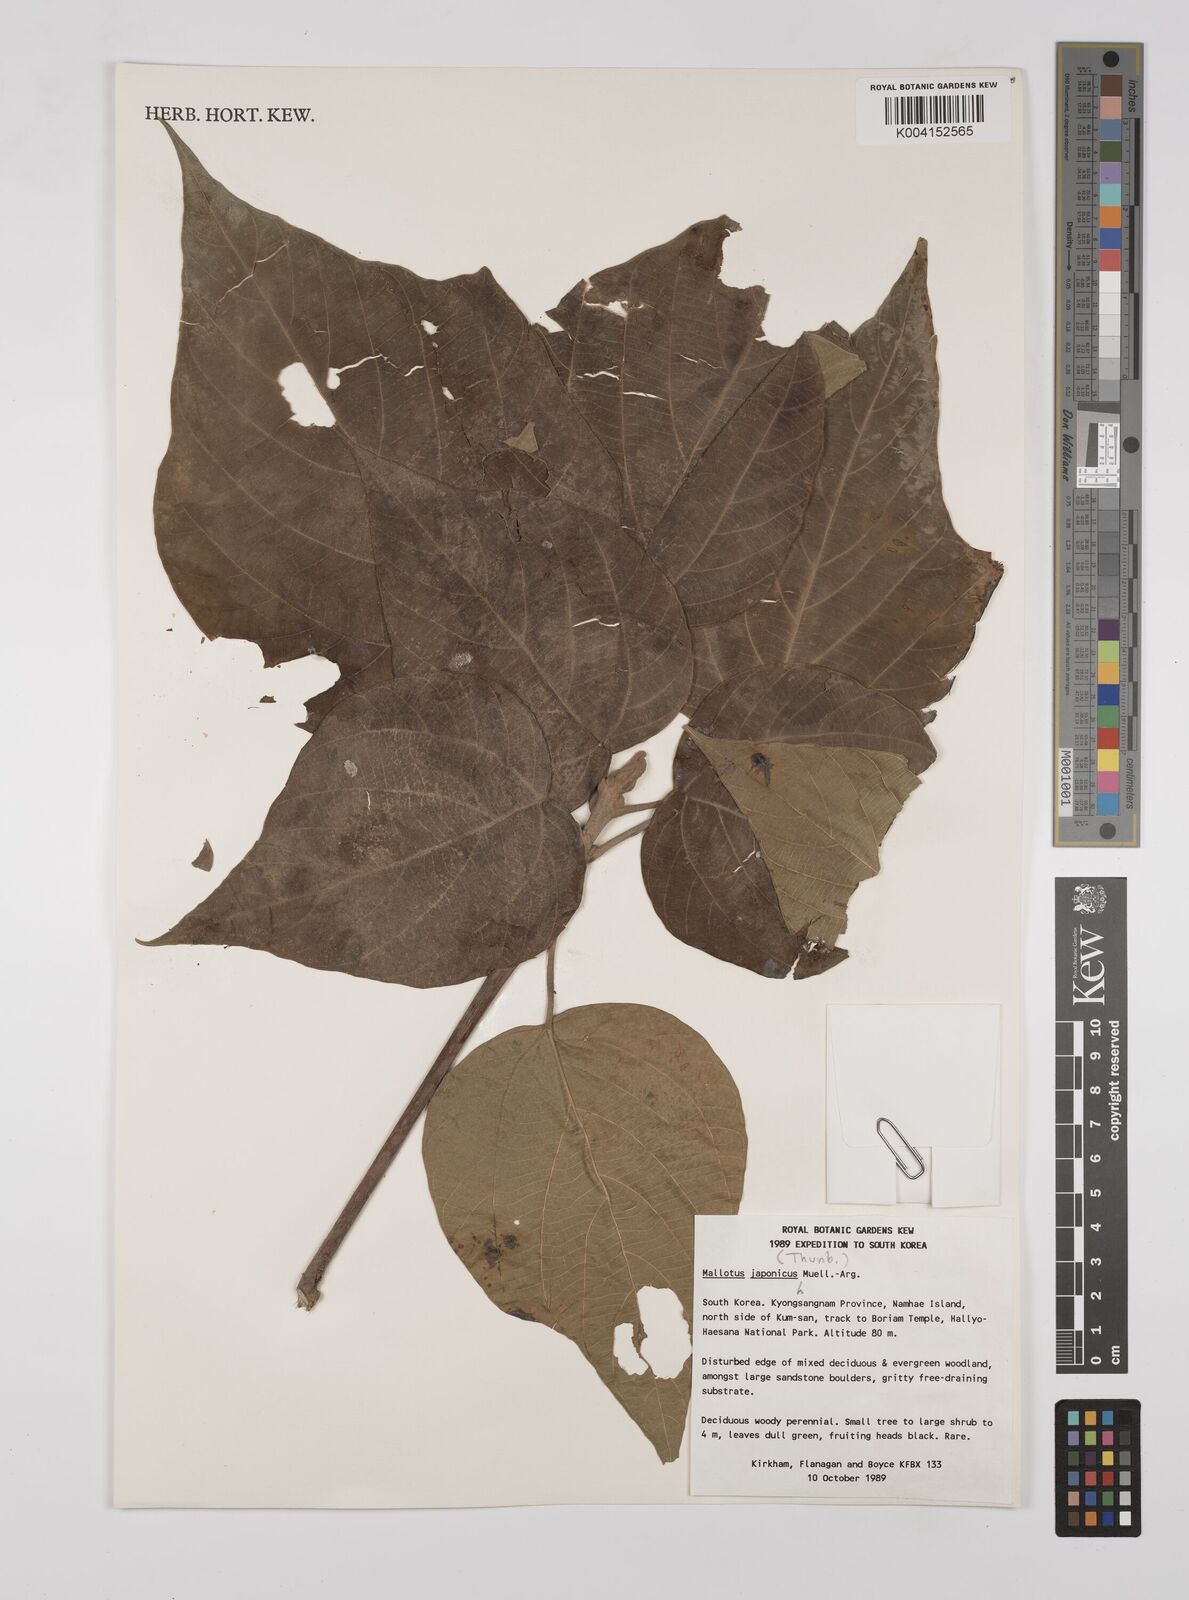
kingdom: Plantae
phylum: Tracheophyta
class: Magnoliopsida
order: Malpighiales
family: Euphorbiaceae
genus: Mallotus
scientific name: Mallotus japonicus
